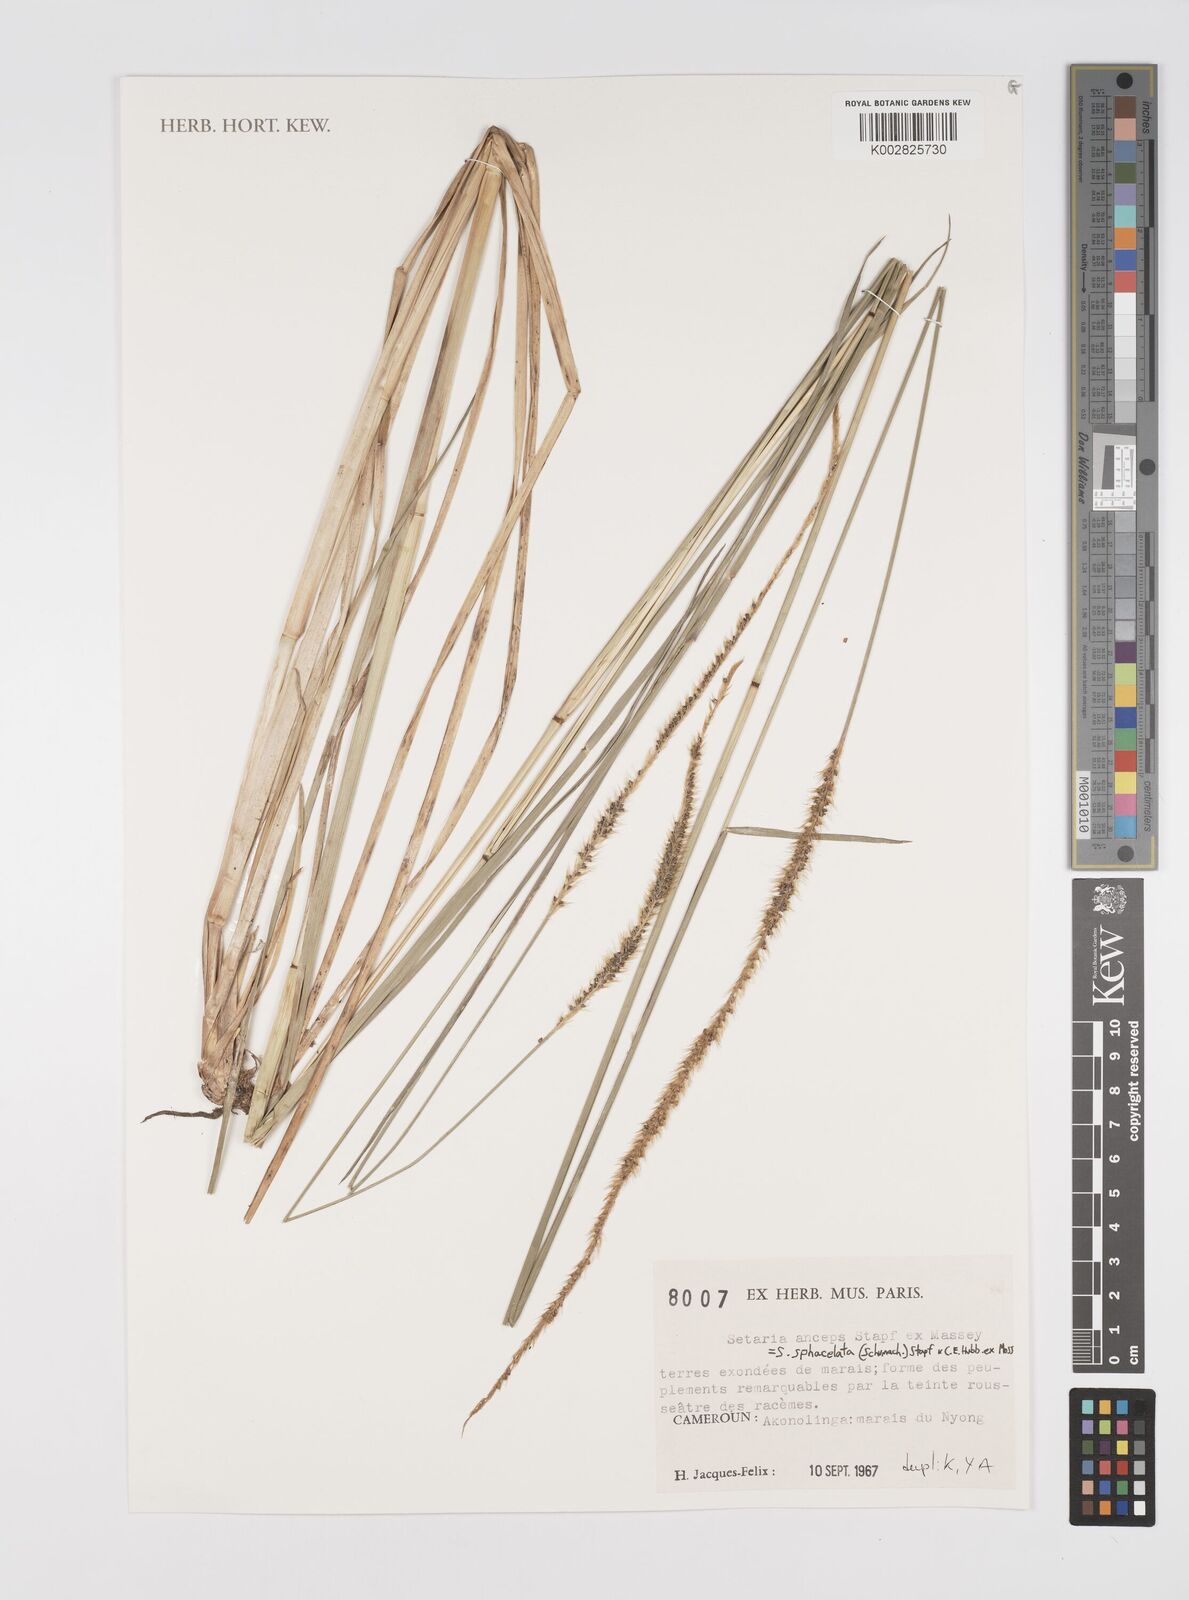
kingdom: Plantae
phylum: Tracheophyta
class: Liliopsida
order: Poales
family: Poaceae
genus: Setaria
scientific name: Setaria sphacelata
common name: African bristlegrass
